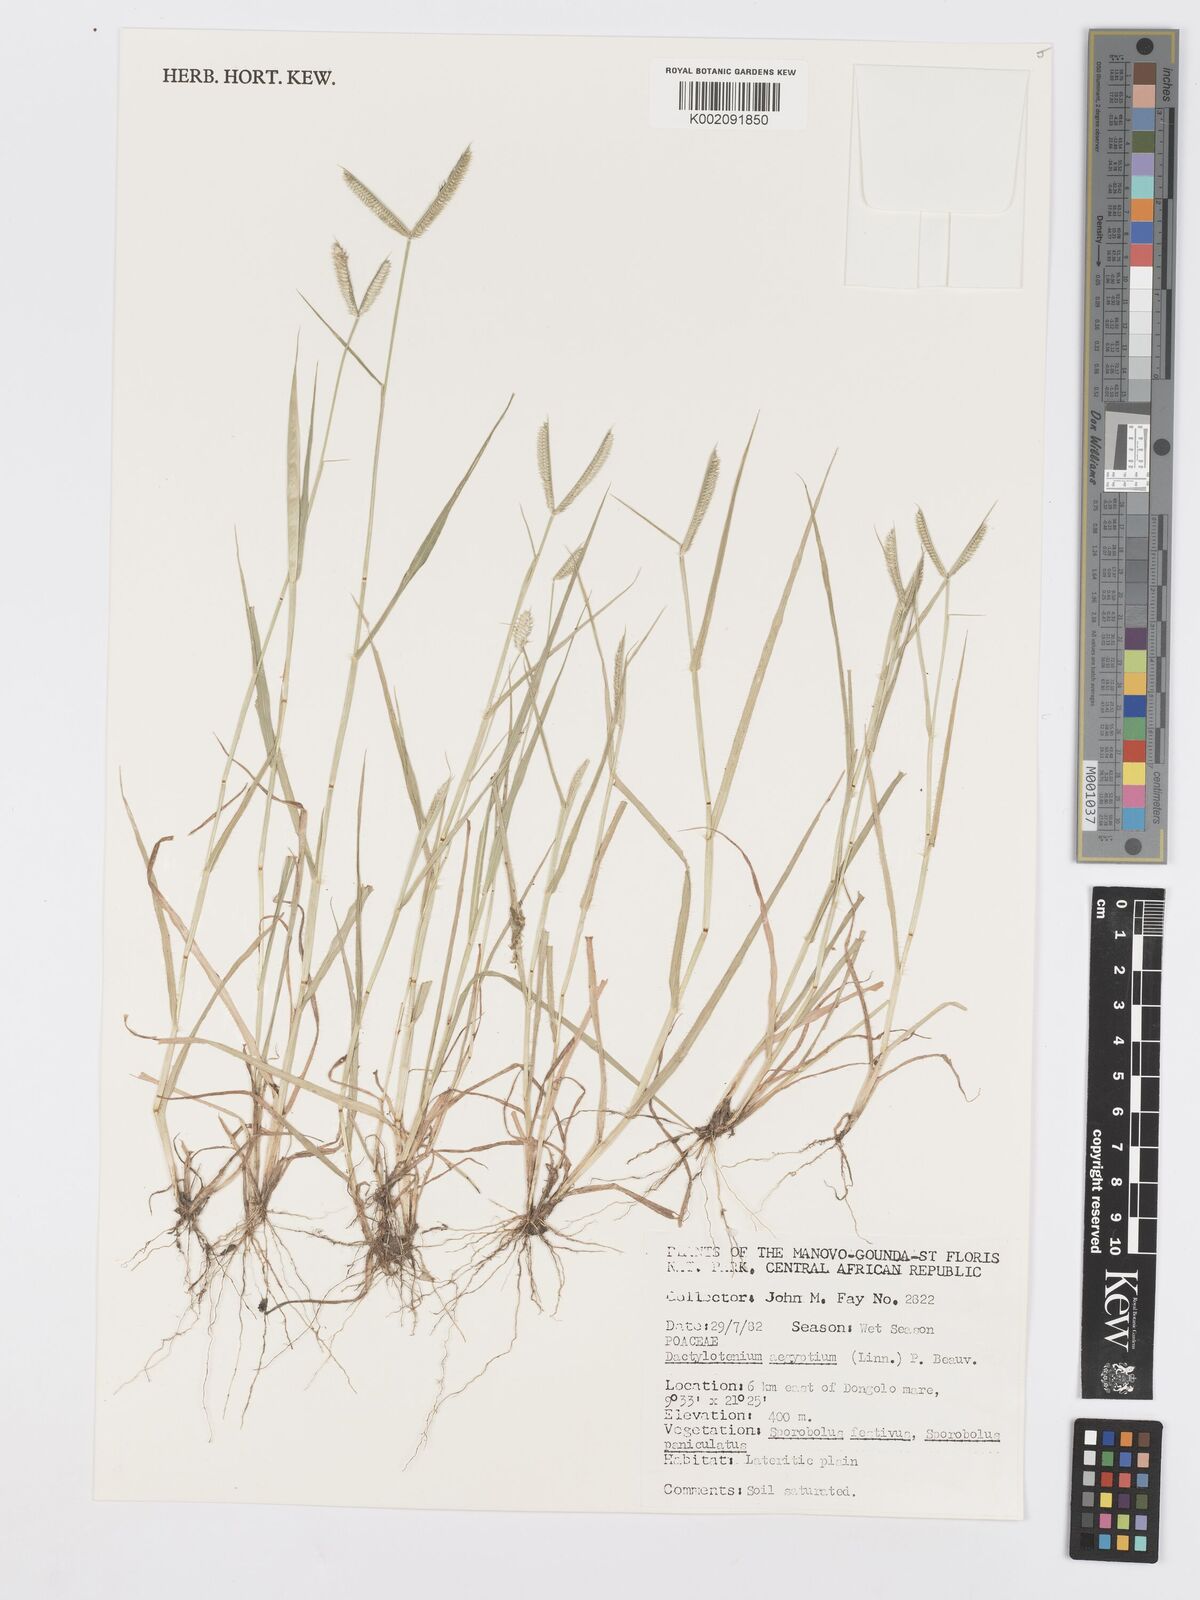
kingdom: Plantae
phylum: Tracheophyta
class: Liliopsida
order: Poales
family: Poaceae
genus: Dactyloctenium
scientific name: Dactyloctenium aegyptium
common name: Egyptian grass
